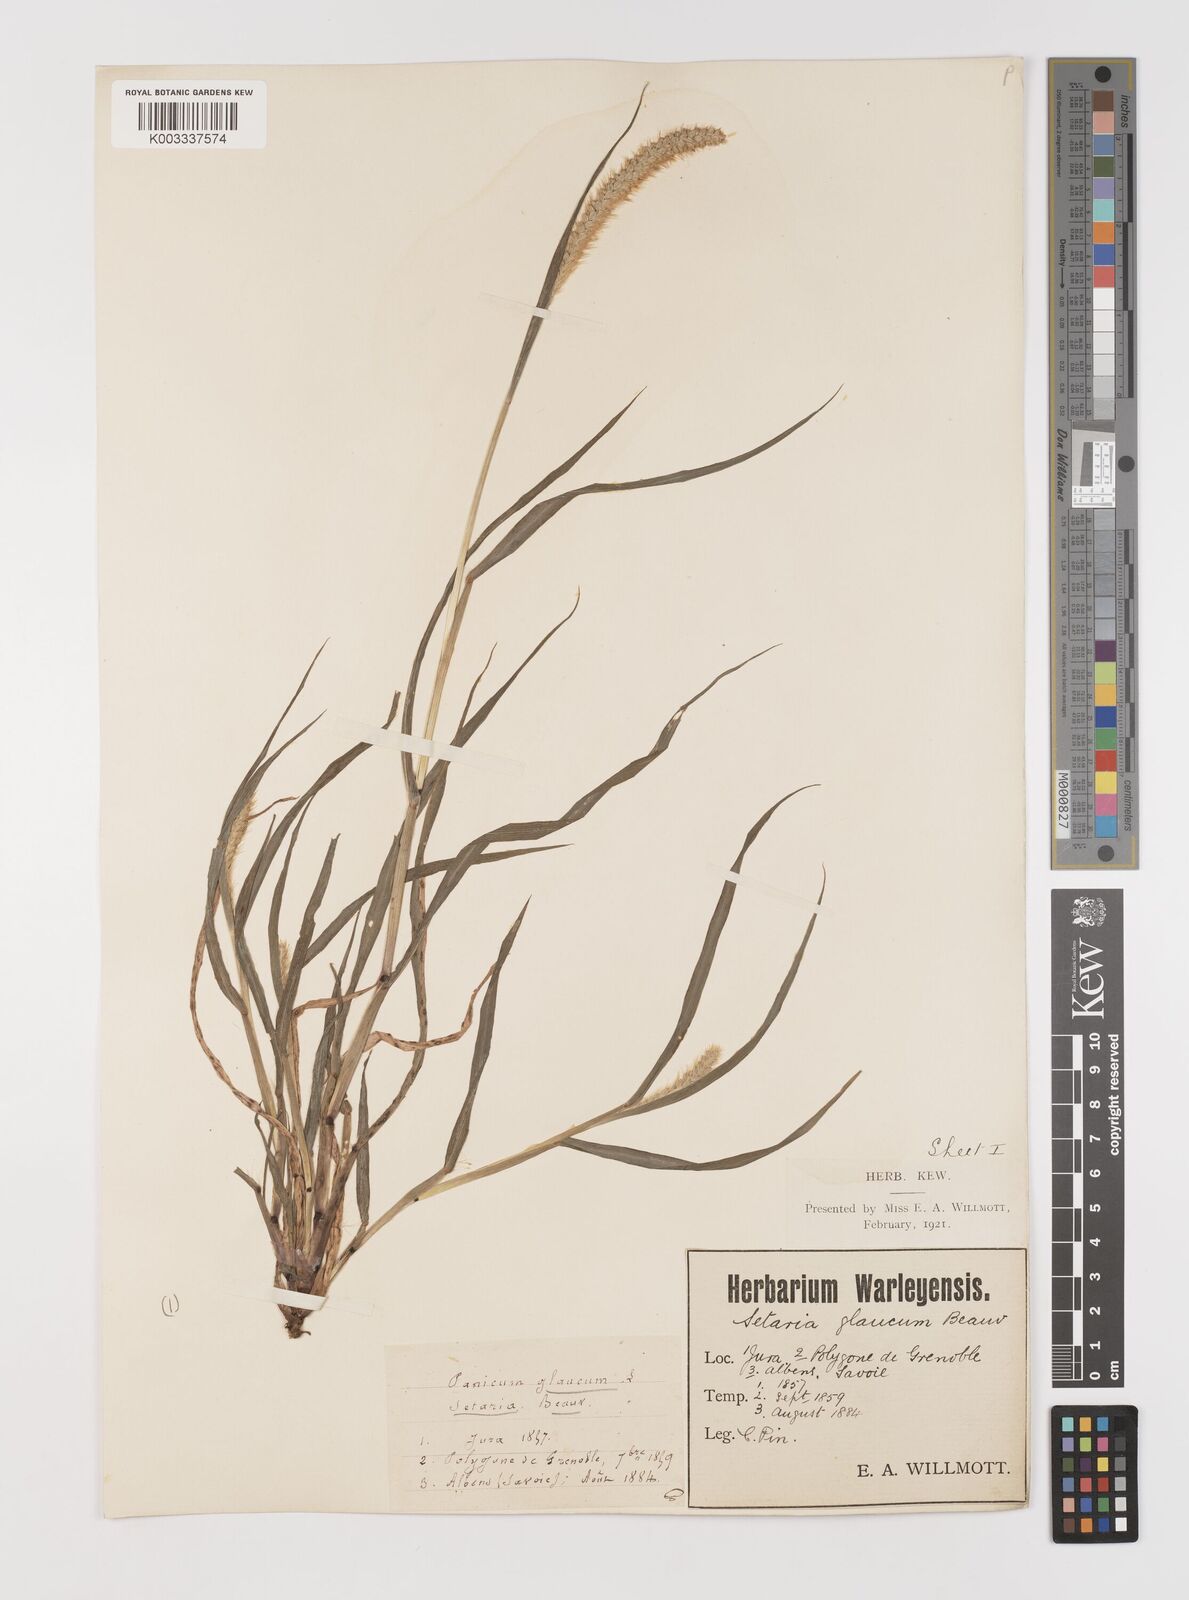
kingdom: Plantae
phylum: Tracheophyta
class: Liliopsida
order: Poales
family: Poaceae
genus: Setaria
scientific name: Setaria pumila
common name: Yellow bristle-grass
